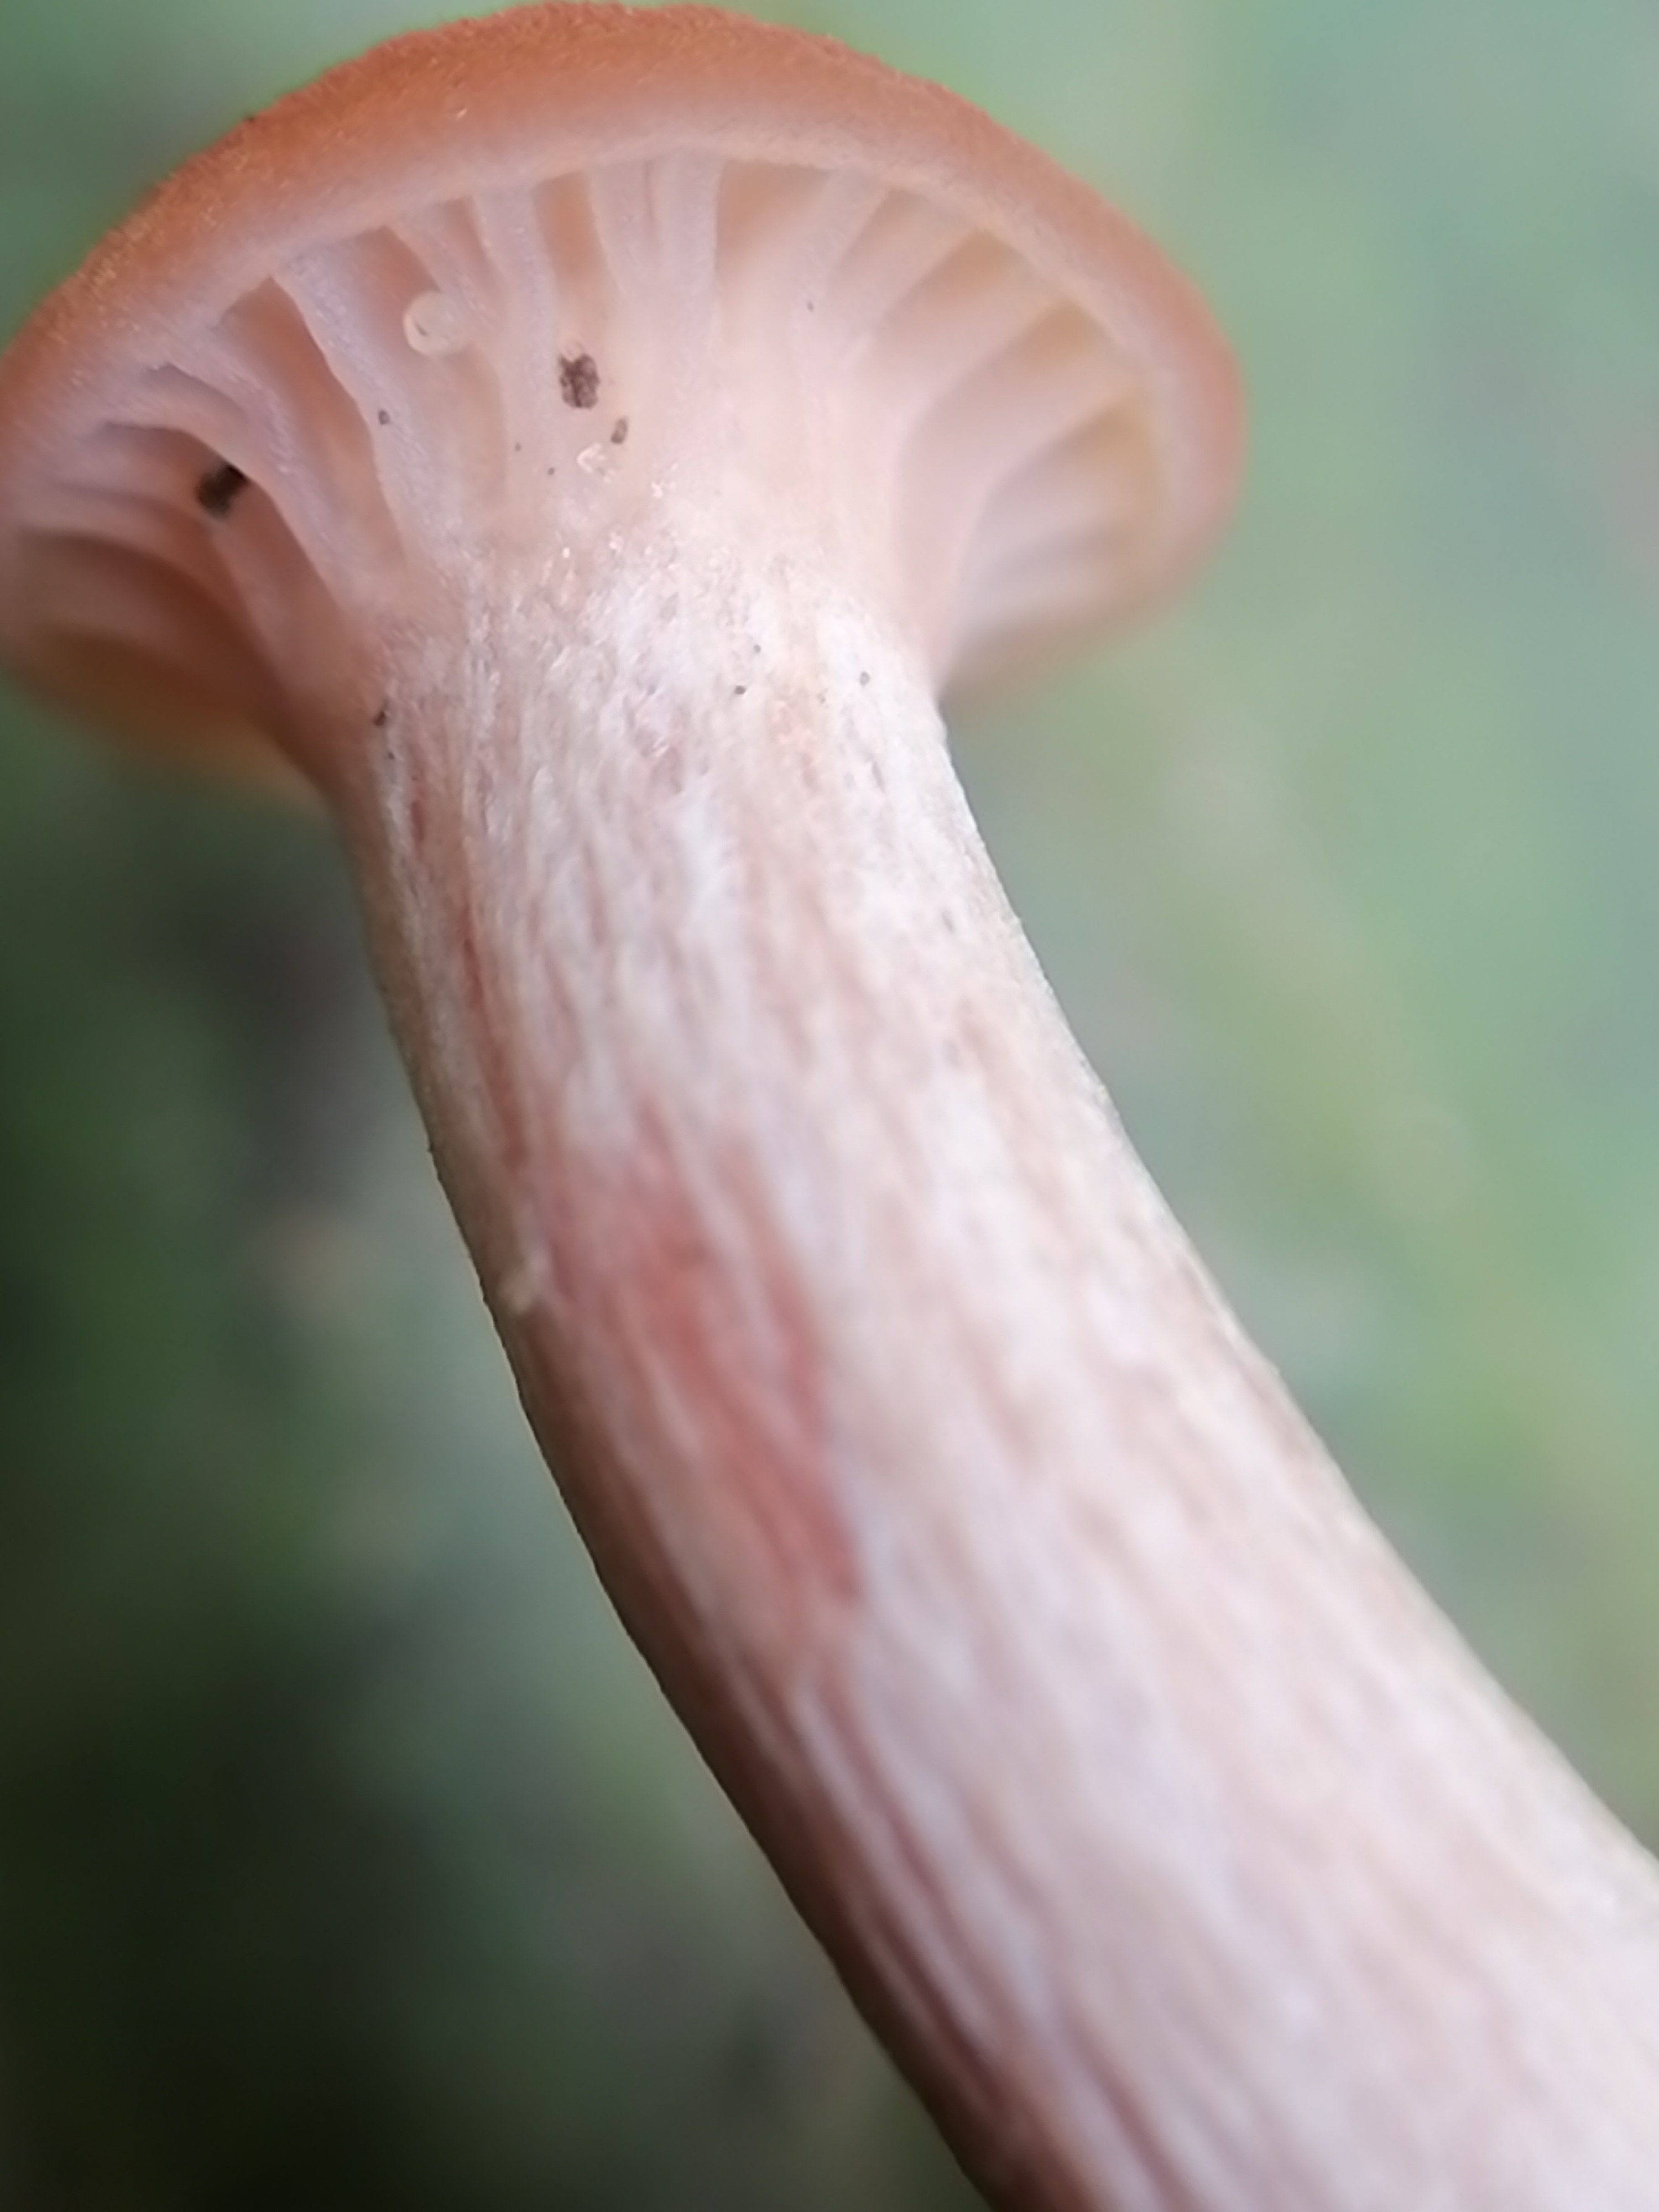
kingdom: Fungi
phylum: Basidiomycota
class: Agaricomycetes
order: Agaricales
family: Hydnangiaceae
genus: Laccaria
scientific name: Laccaria laccata
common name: rød ametysthat
